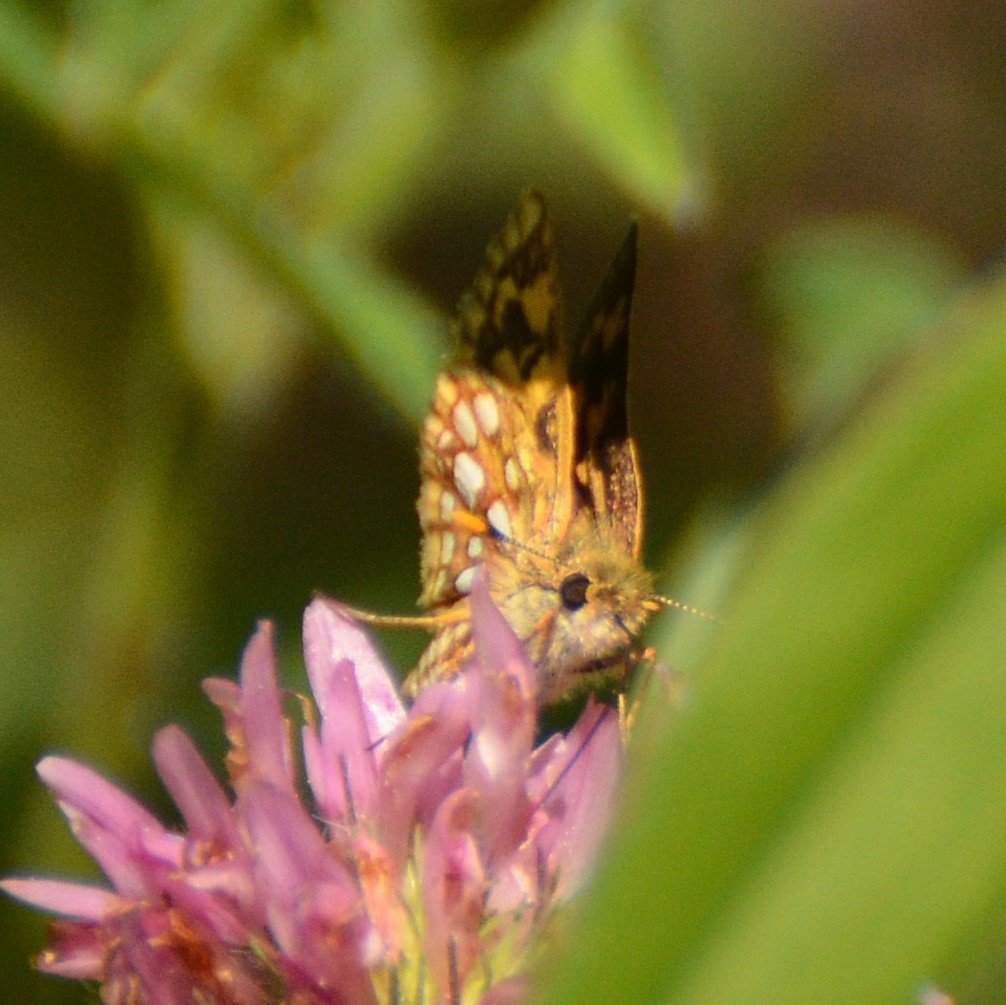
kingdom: Animalia
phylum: Arthropoda
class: Insecta
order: Lepidoptera
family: Hesperiidae
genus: Carterocephalus
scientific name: Carterocephalus palaemon
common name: Chequered Skipper
